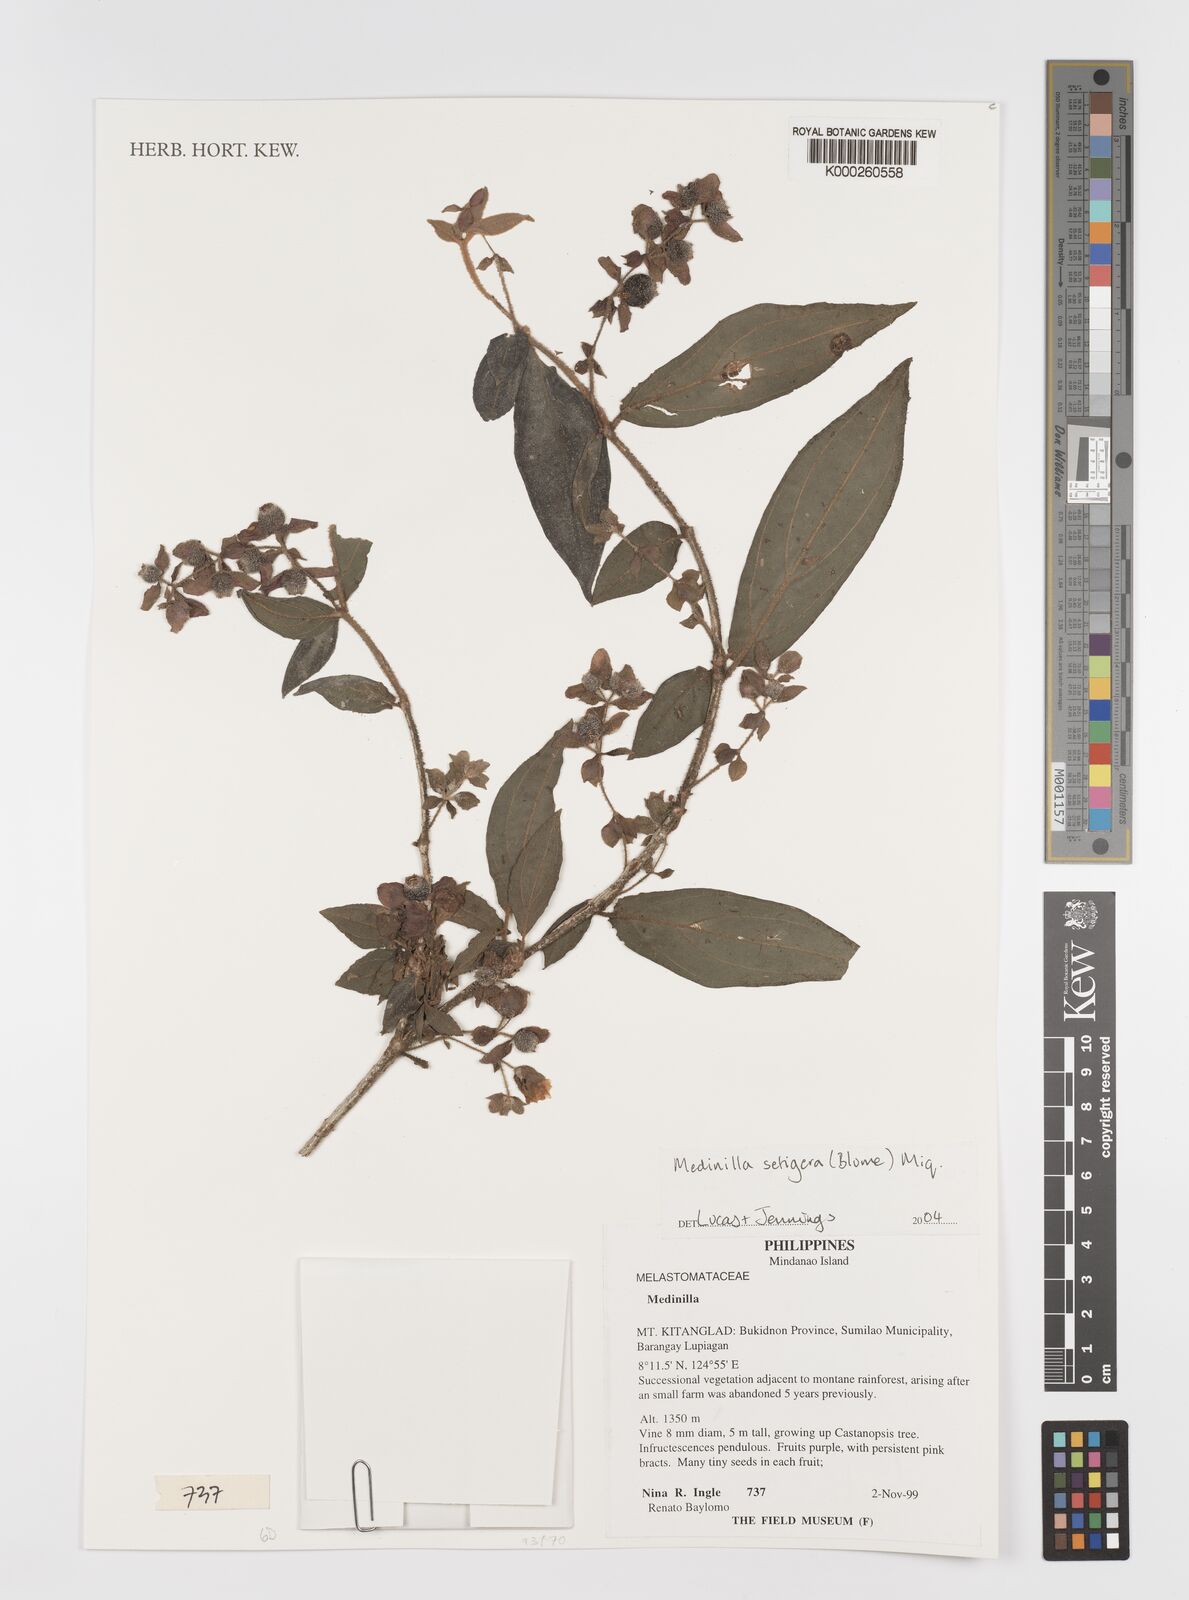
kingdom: Plantae
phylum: Tracheophyta
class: Magnoliopsida
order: Myrtales
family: Melastomataceae
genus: Medinilla
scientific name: Medinilla setigera
